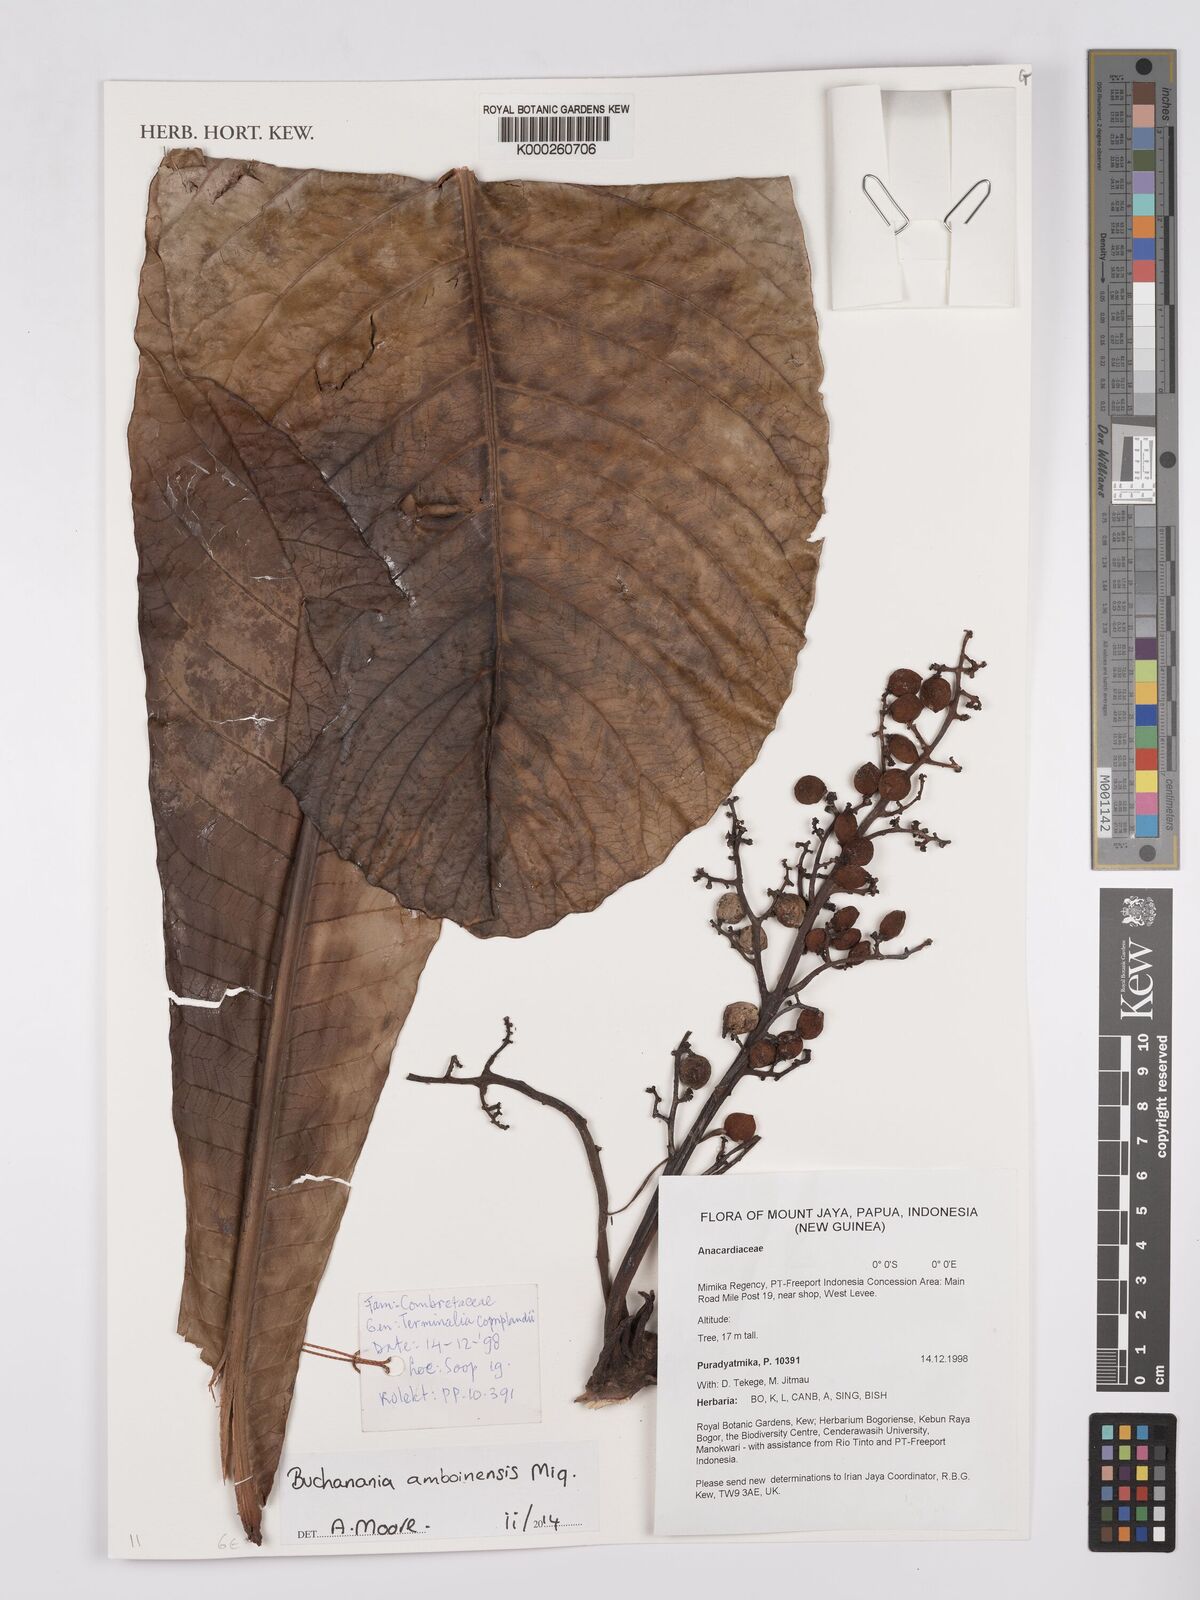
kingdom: Plantae
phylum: Tracheophyta
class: Magnoliopsida
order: Sapindales
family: Anacardiaceae
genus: Buchanania
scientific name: Buchanania amboinensis
